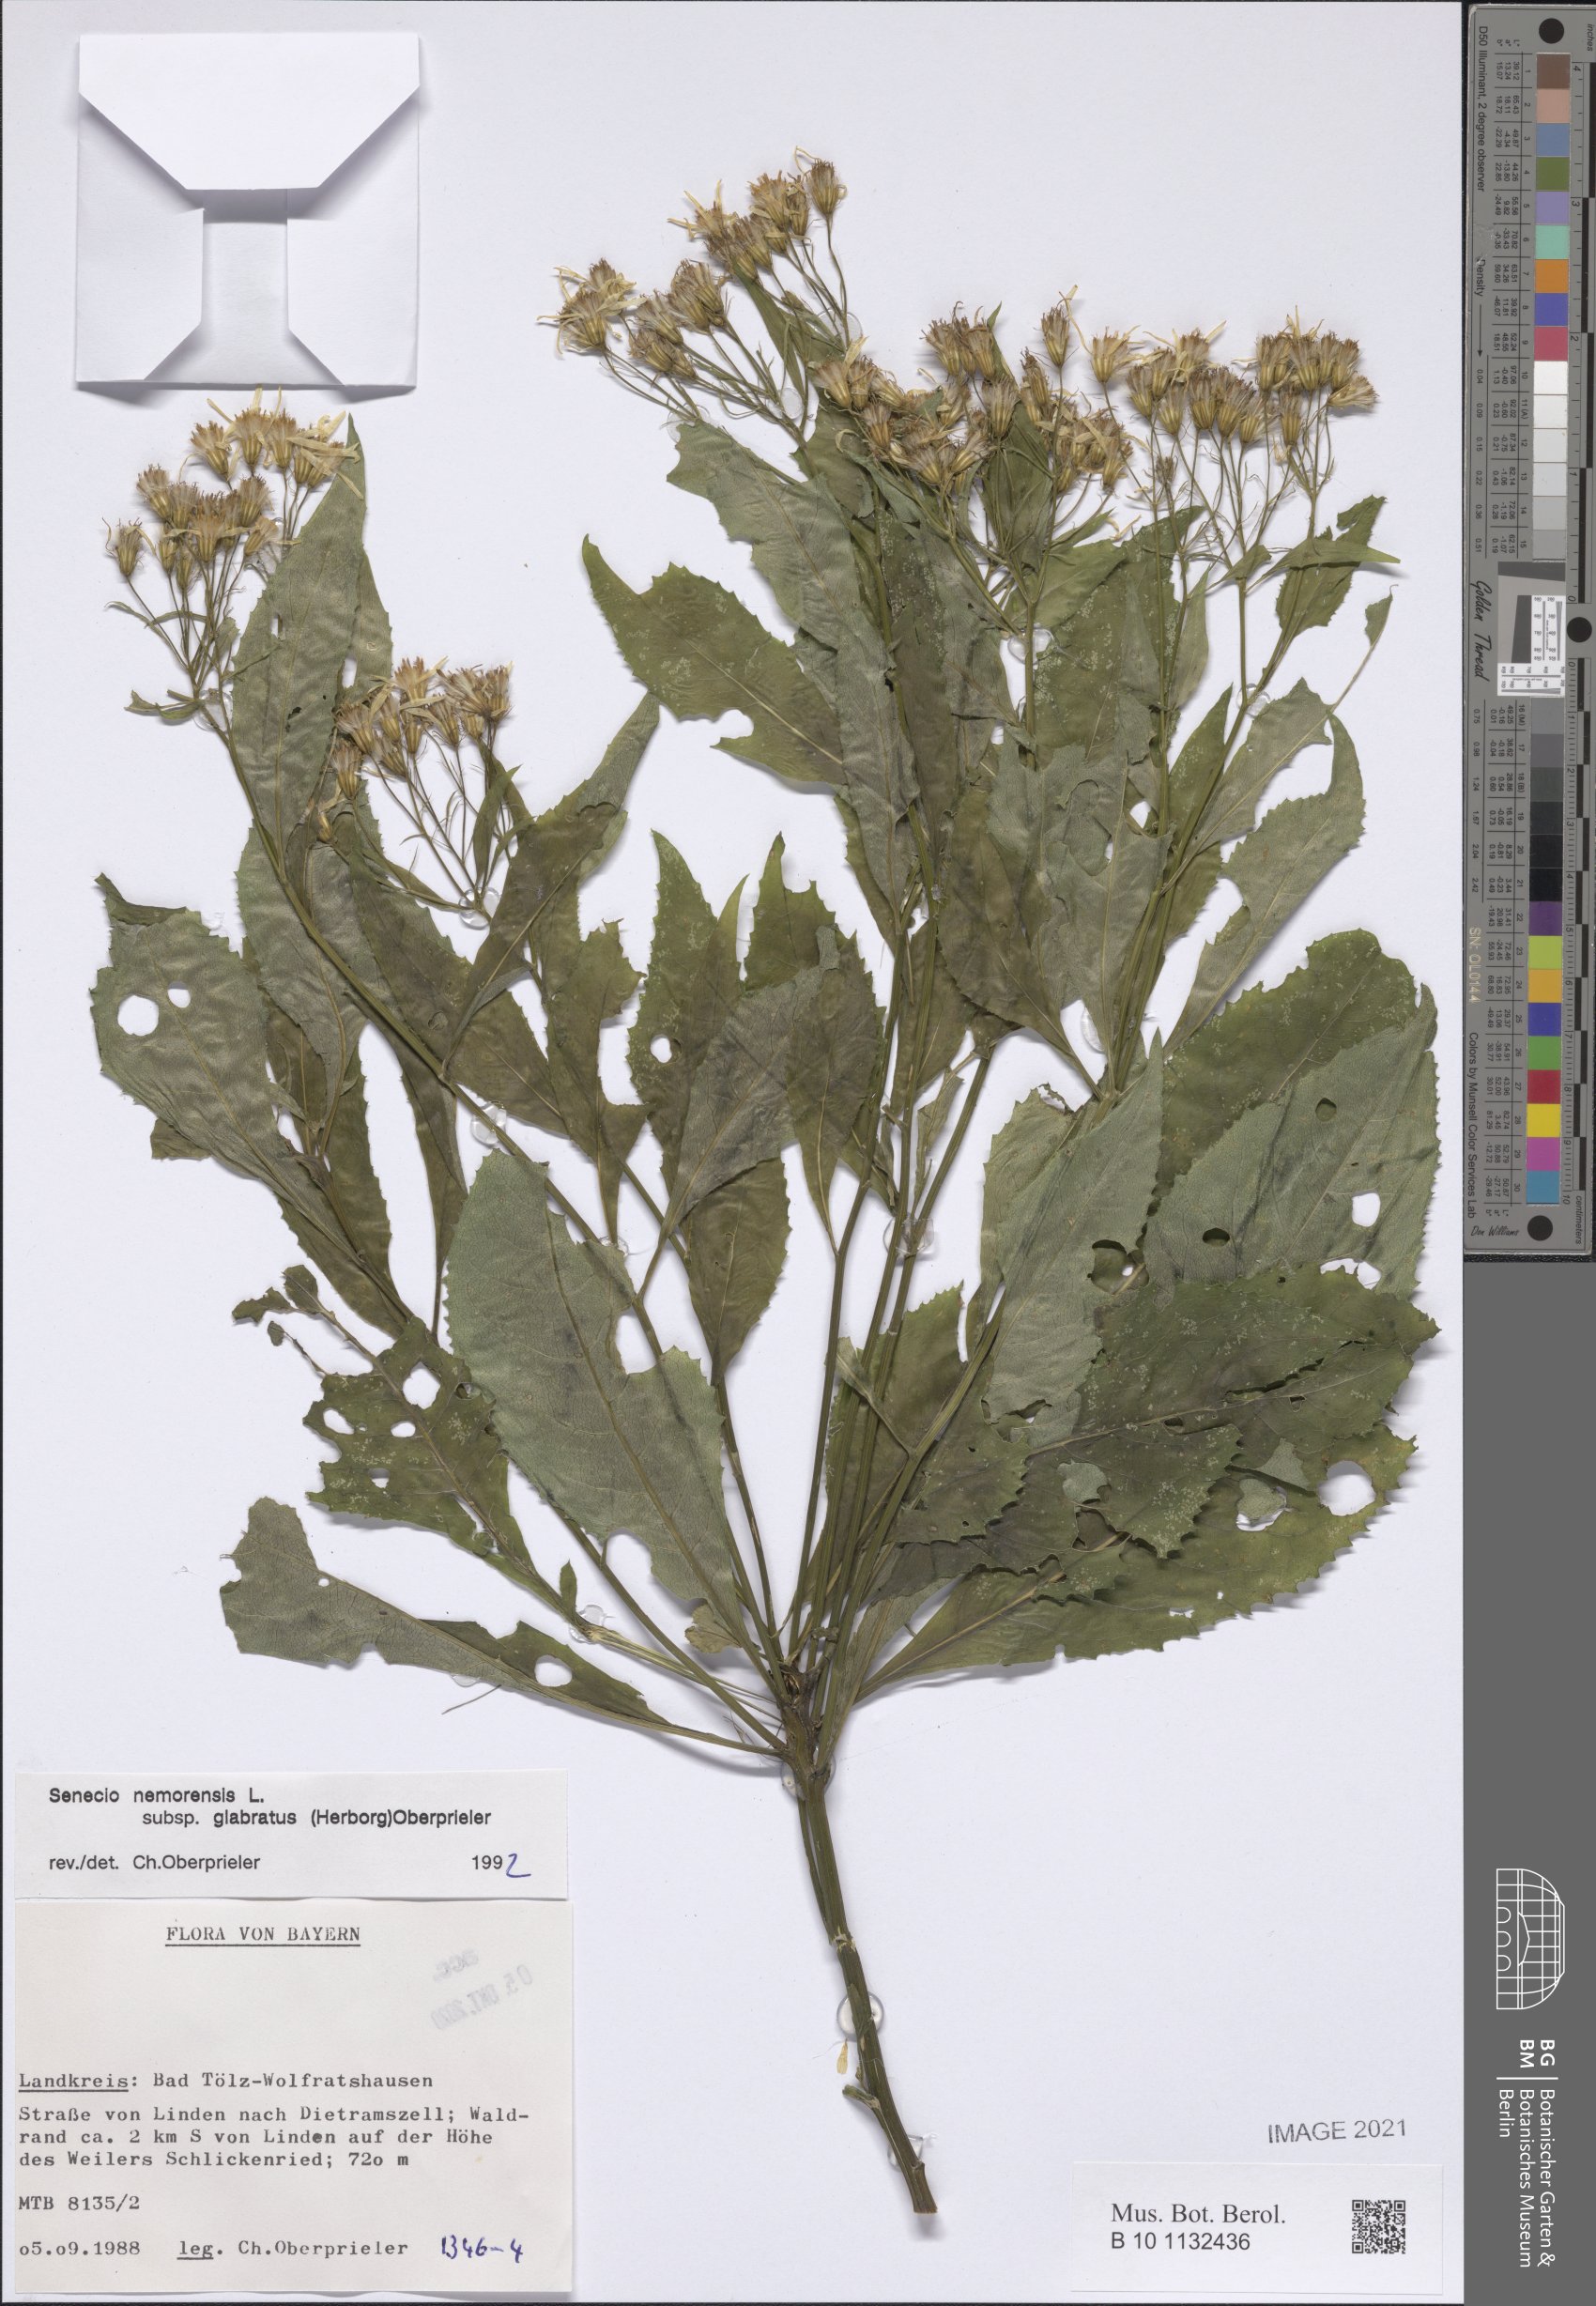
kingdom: Plantae
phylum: Tracheophyta
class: Magnoliopsida
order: Asterales
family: Asteraceae
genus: Senecio
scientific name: Senecio germanicus
